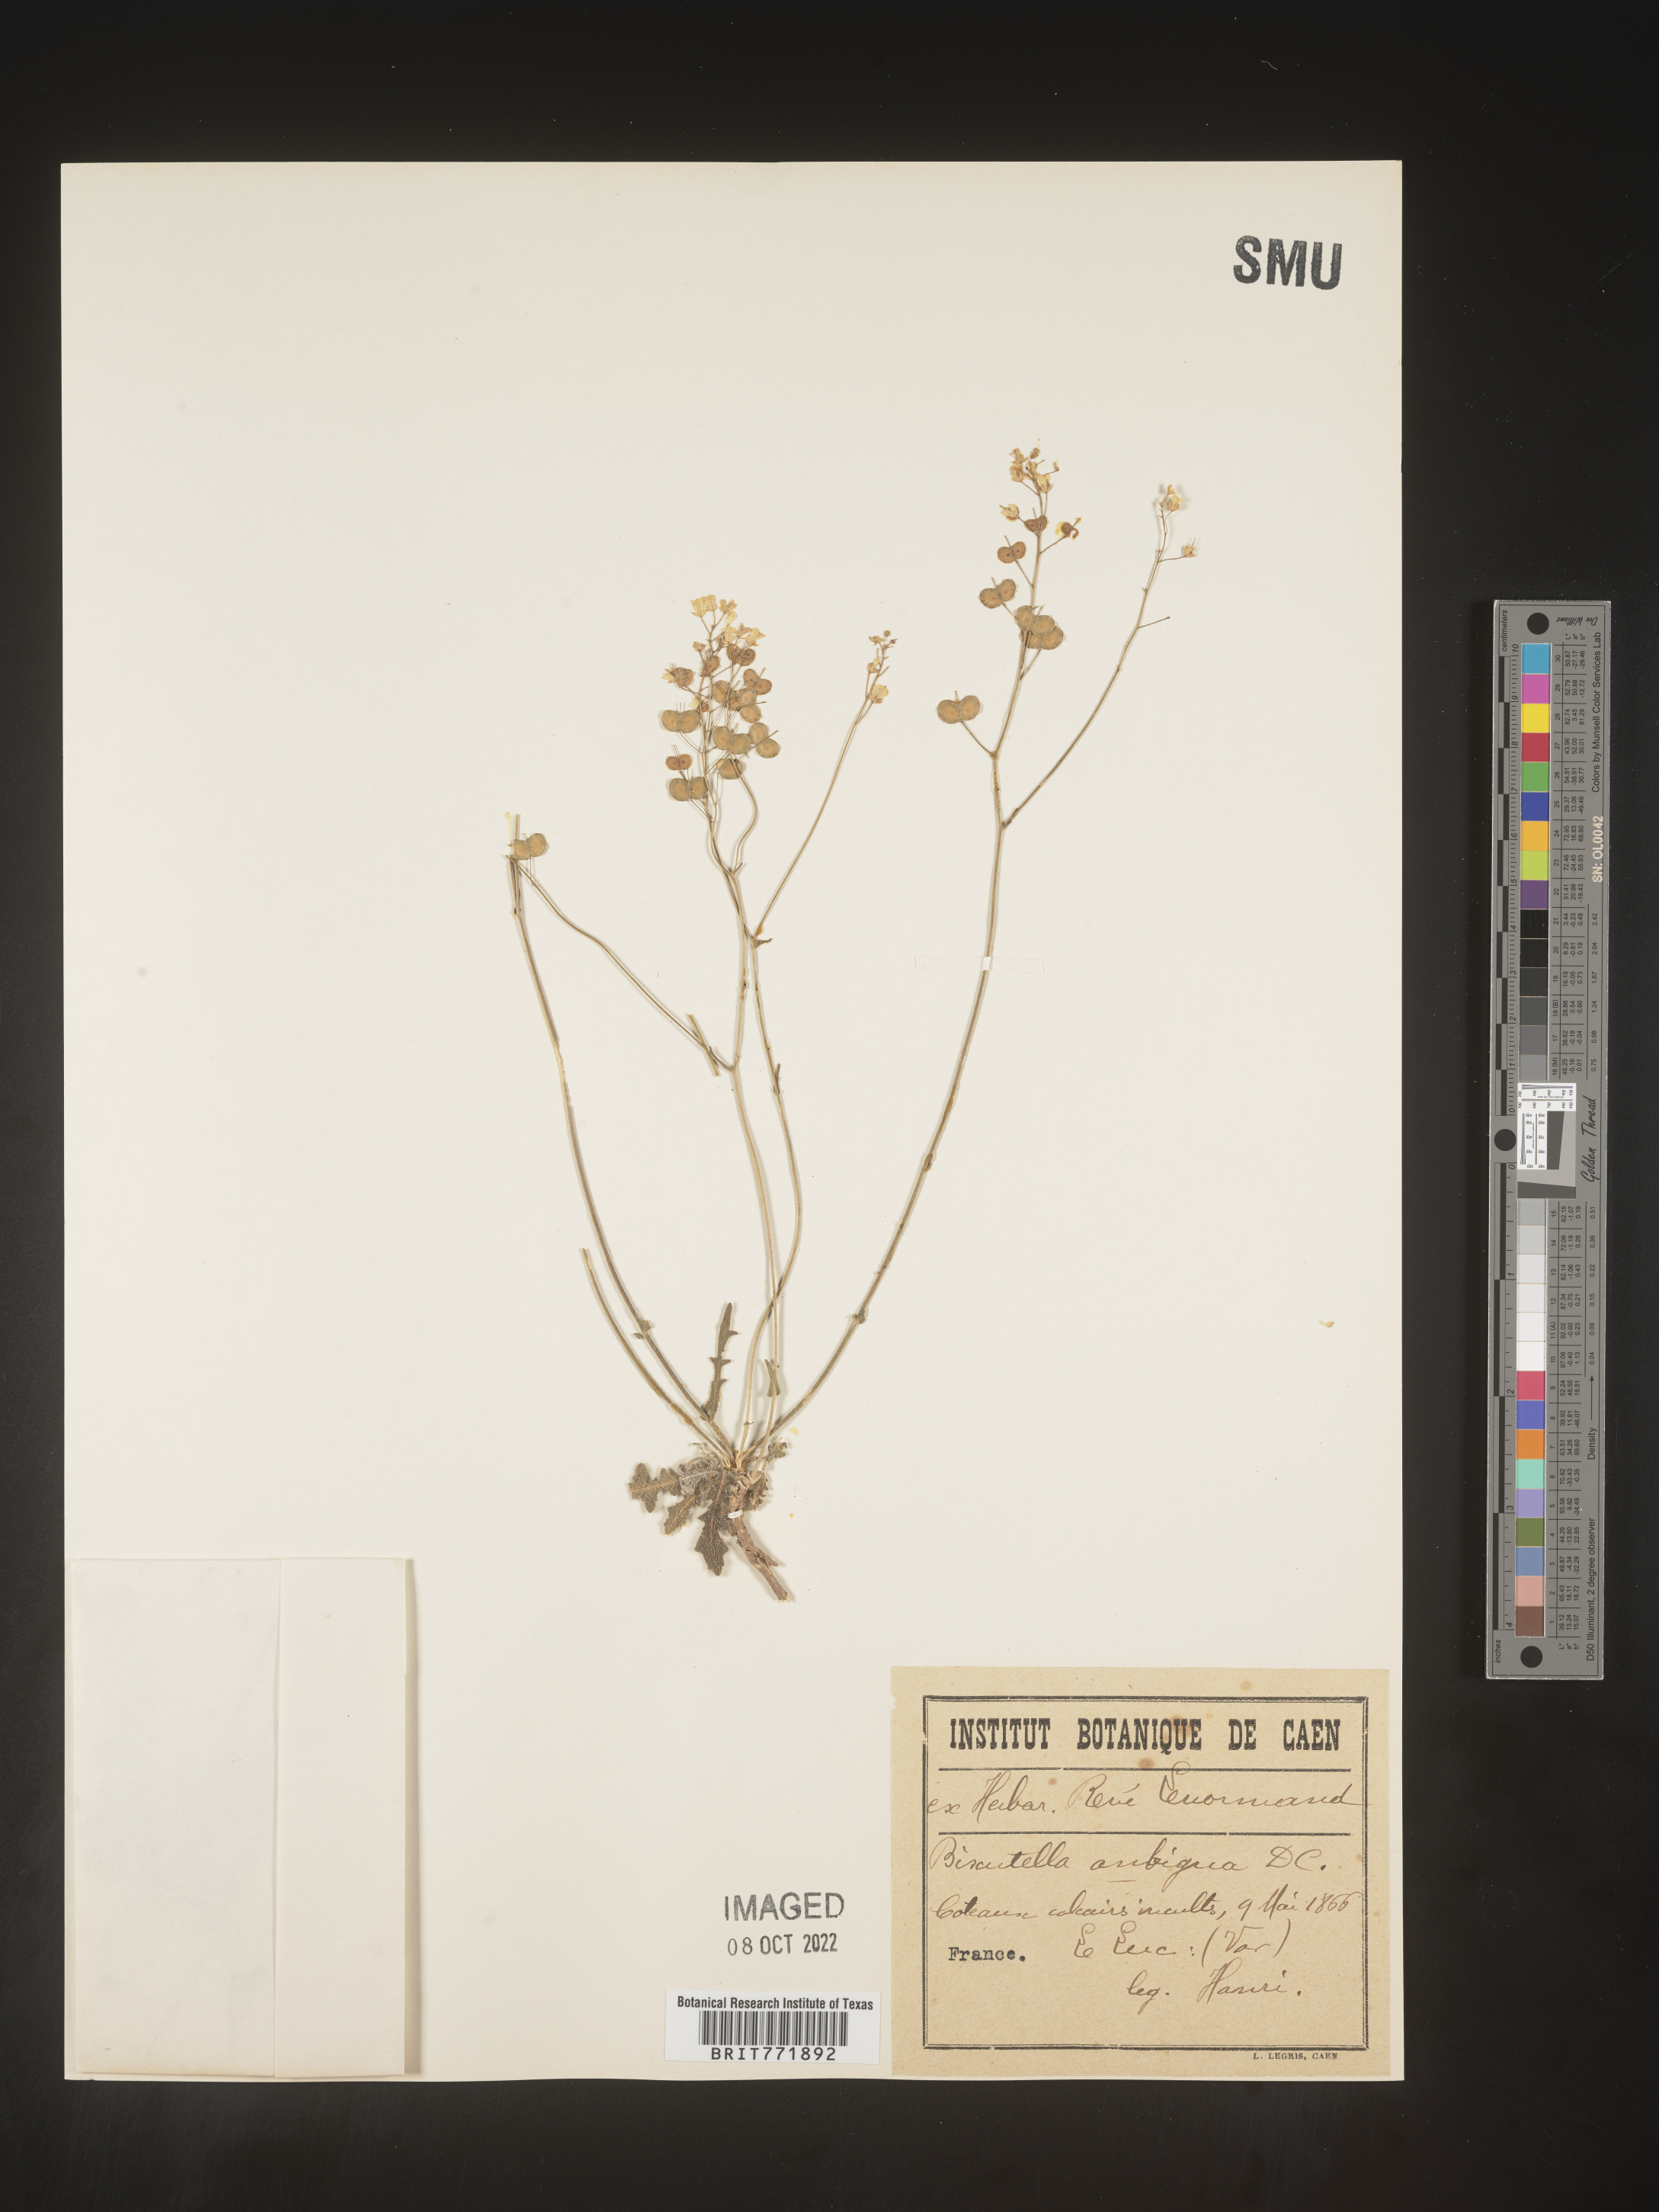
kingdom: Plantae
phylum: Tracheophyta
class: Magnoliopsida
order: Brassicales
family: Brassicaceae
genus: Biscutella
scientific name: Biscutella
